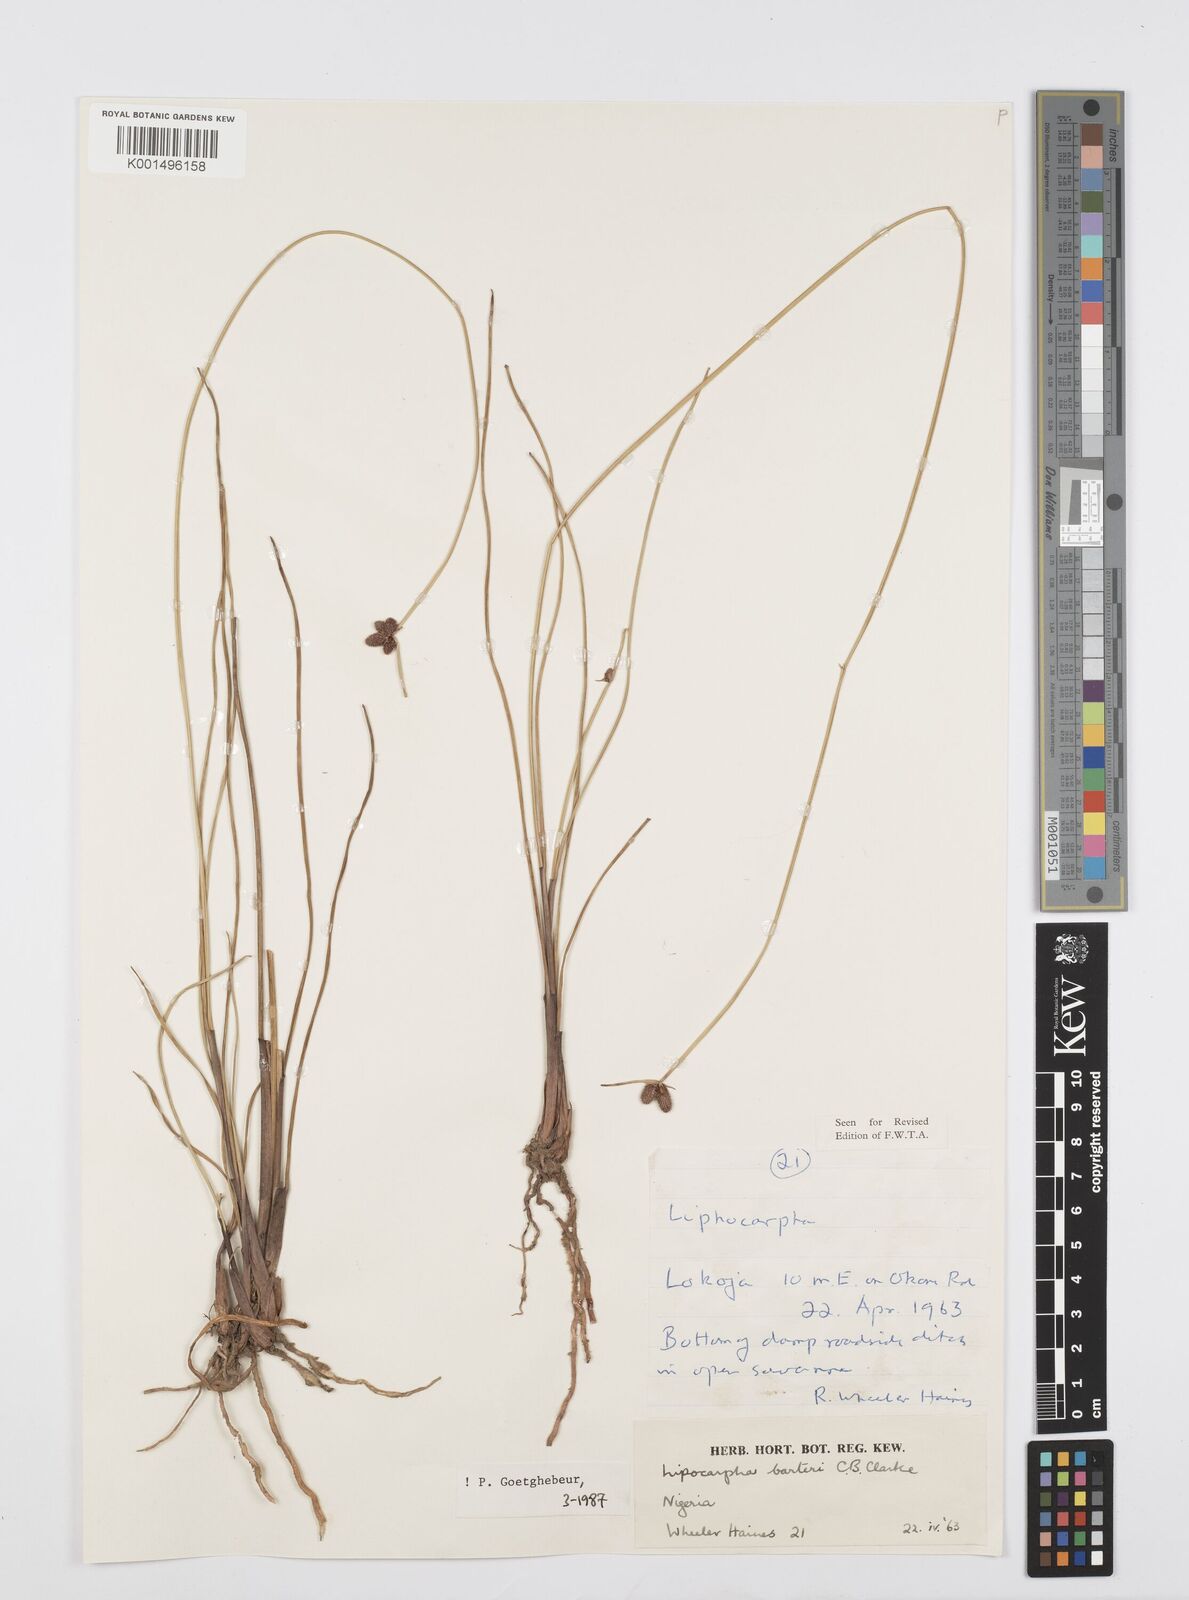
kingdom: Plantae
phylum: Tracheophyta
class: Liliopsida
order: Poales
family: Cyperaceae
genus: Cyperus
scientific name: Cyperus pustulatus
